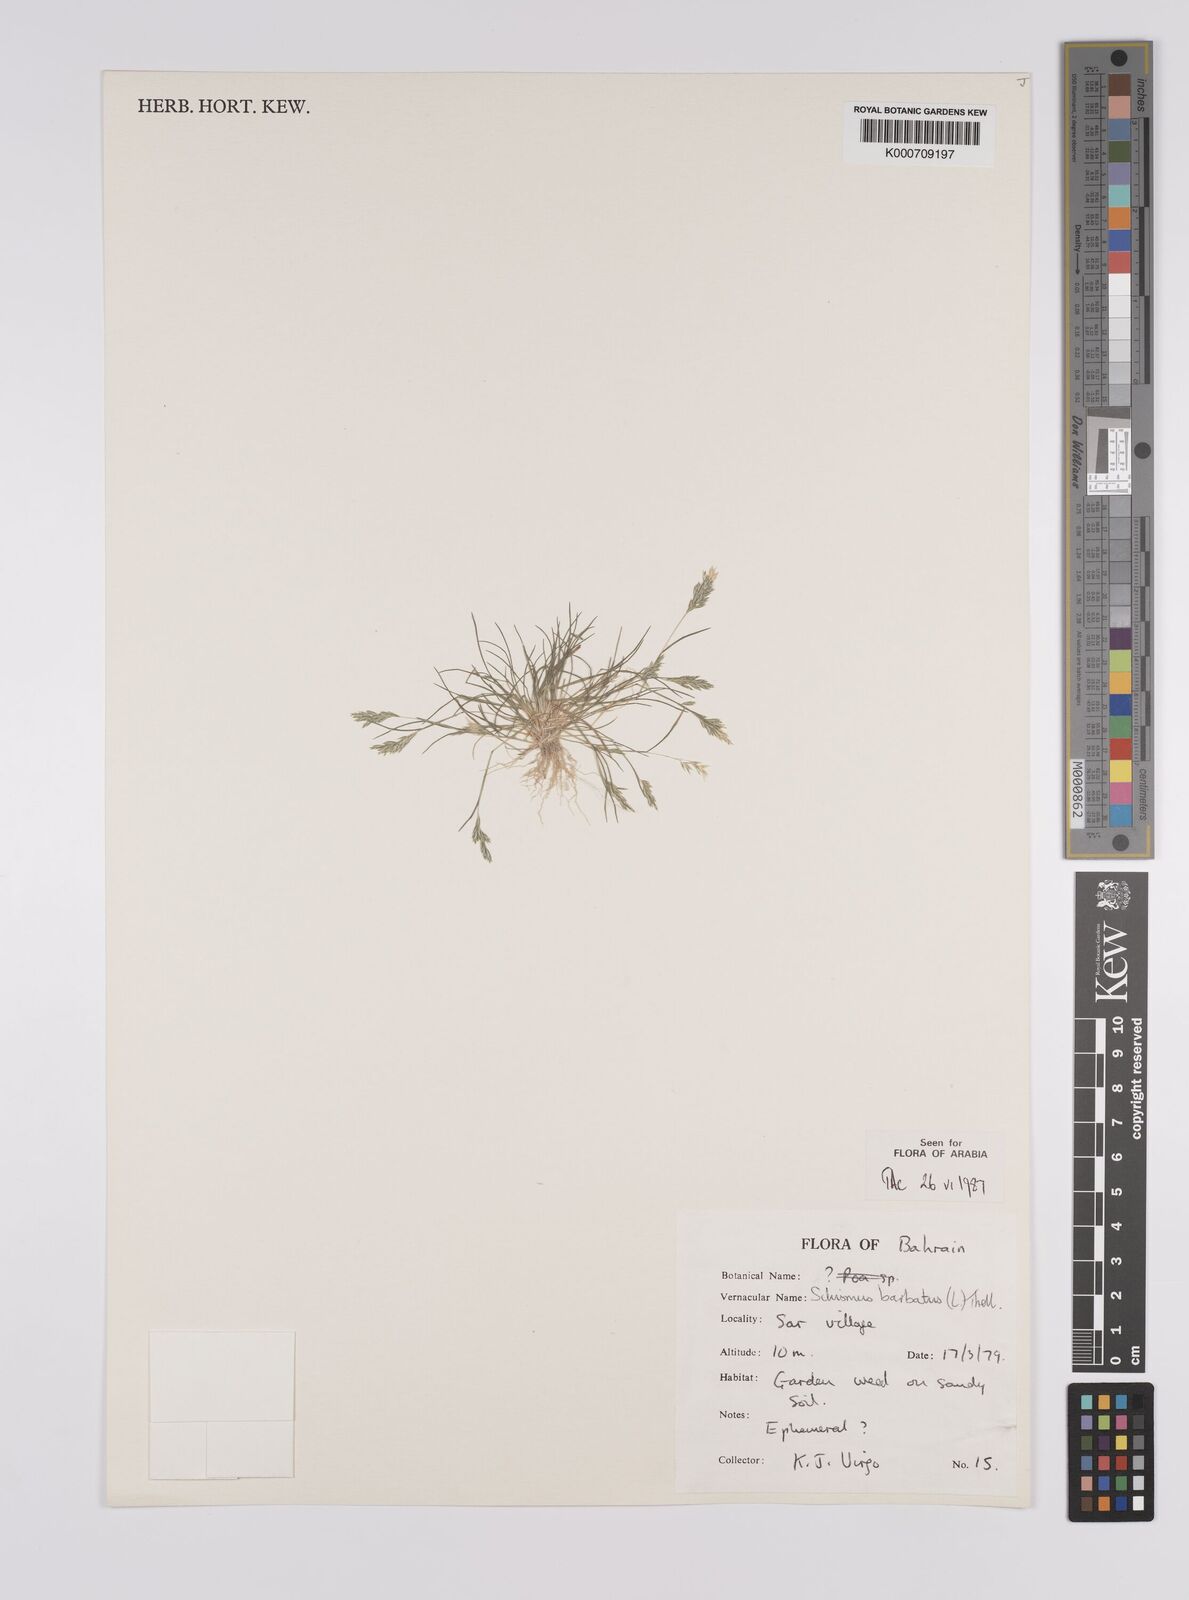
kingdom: Plantae
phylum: Tracheophyta
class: Liliopsida
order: Poales
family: Poaceae
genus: Schismus
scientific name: Schismus barbatus
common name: Kelch-grass
